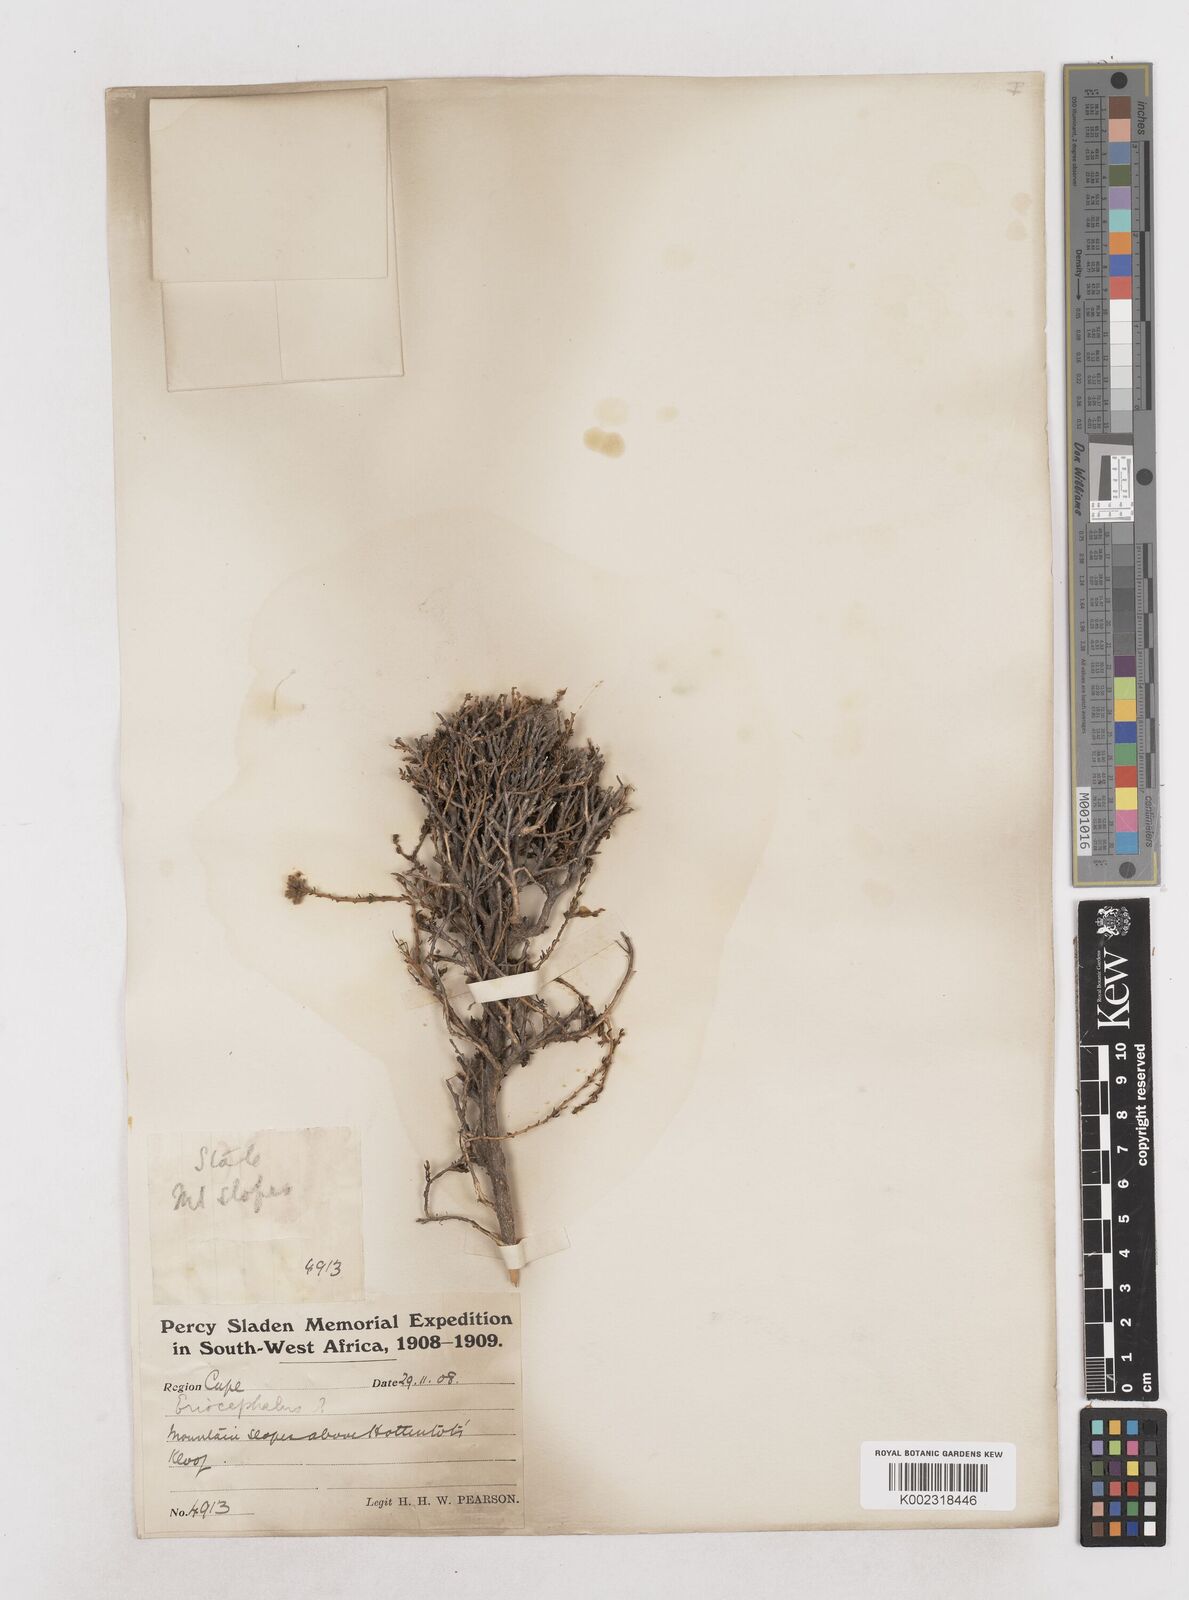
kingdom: Plantae
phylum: Tracheophyta
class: Magnoliopsida
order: Asterales
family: Asteraceae
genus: Eriocephalus
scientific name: Eriocephalus
